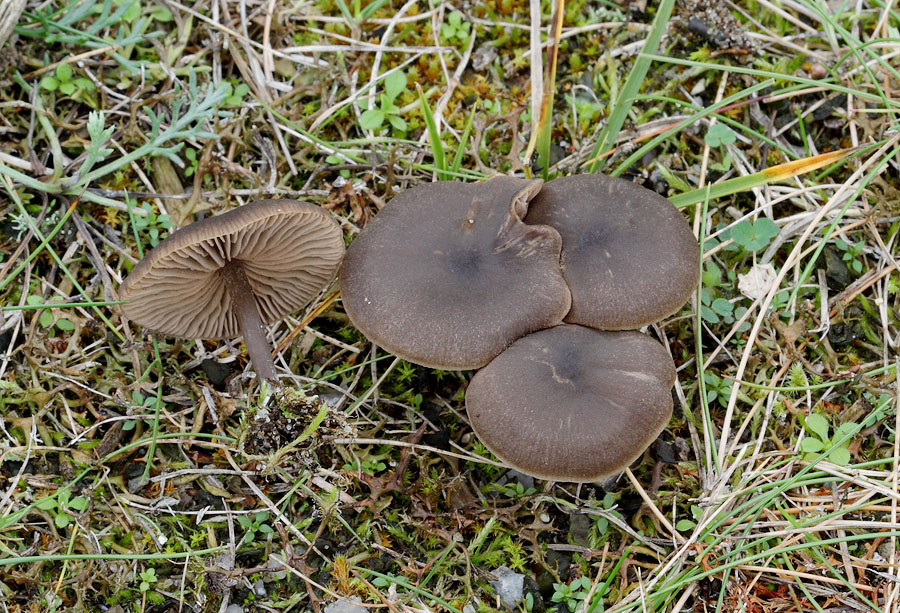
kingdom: Fungi
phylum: Basidiomycota
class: Agaricomycetes
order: Agaricales
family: Entolomataceae
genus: Entoloma
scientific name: Entoloma sericeum
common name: silkeglinsende rødblad
